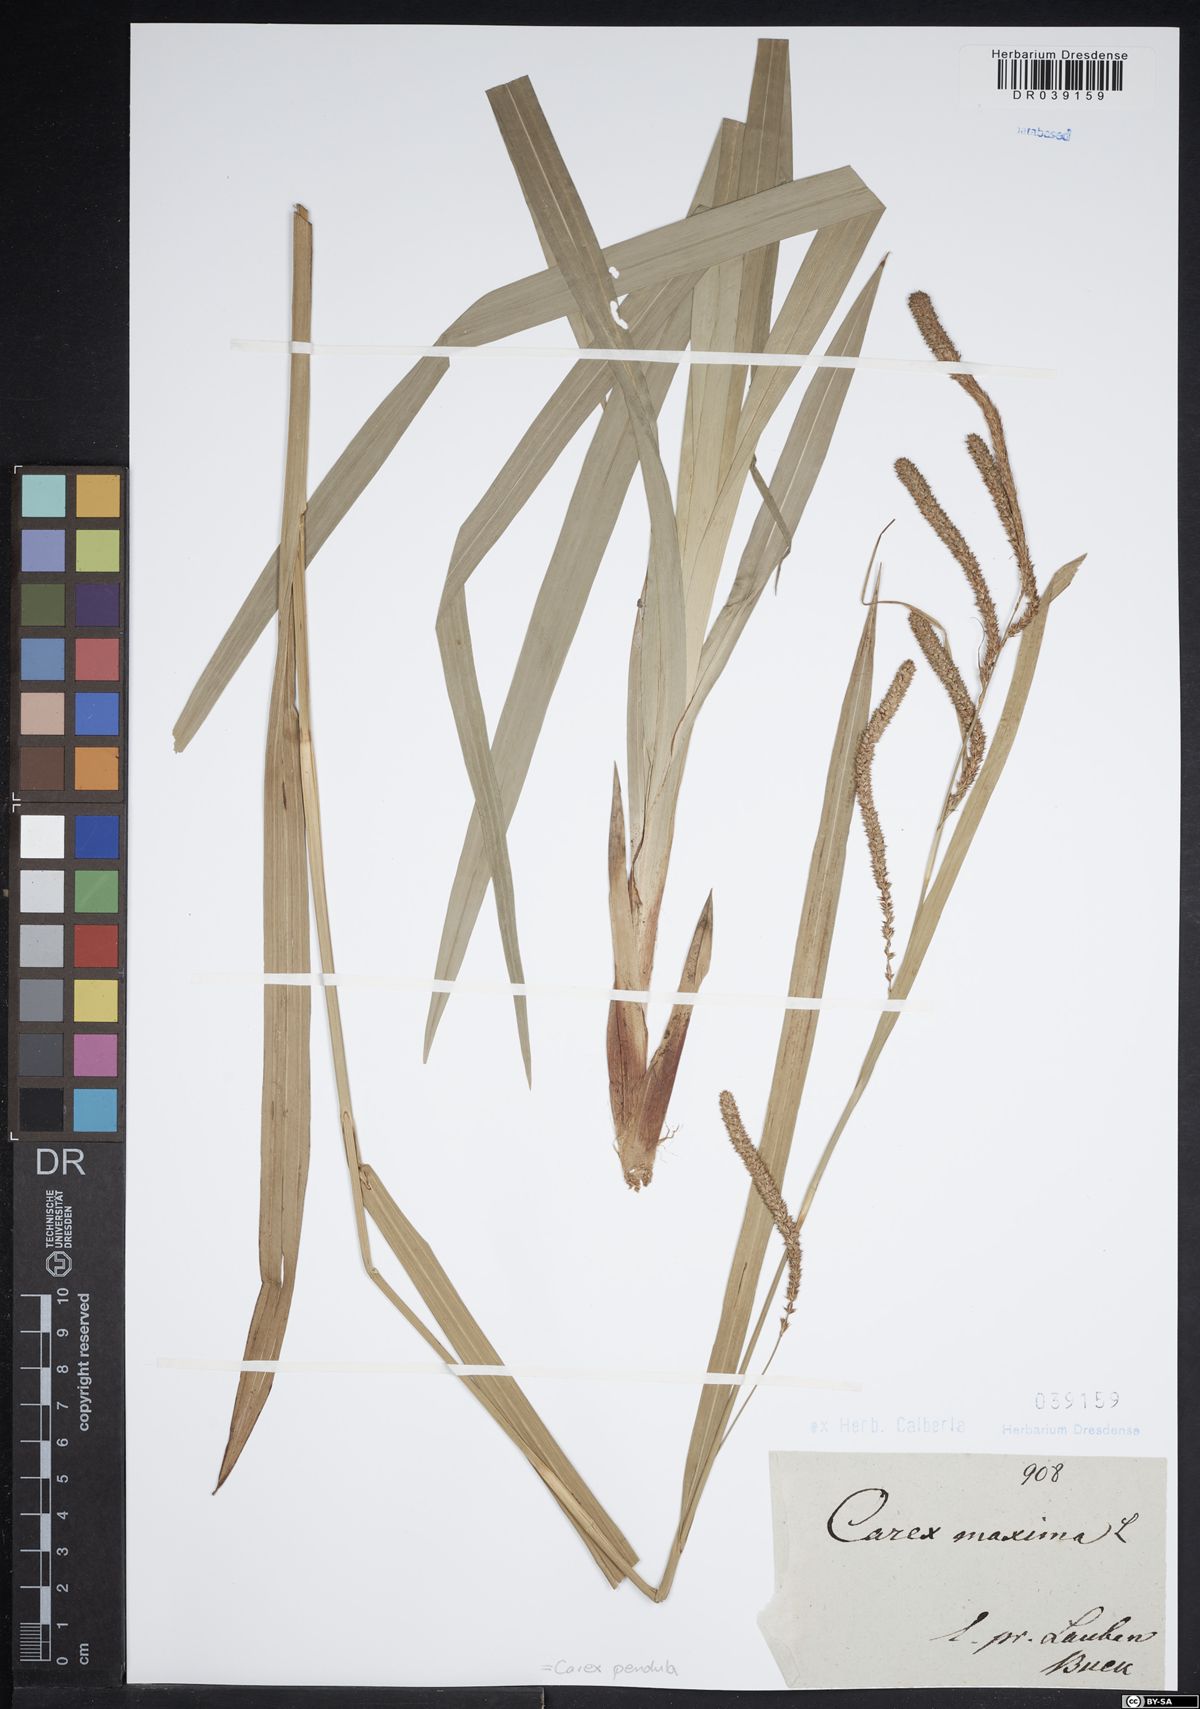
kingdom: Plantae
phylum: Tracheophyta
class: Liliopsida
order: Poales
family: Cyperaceae
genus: Carex
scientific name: Carex pendula
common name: Pendulous sedge
